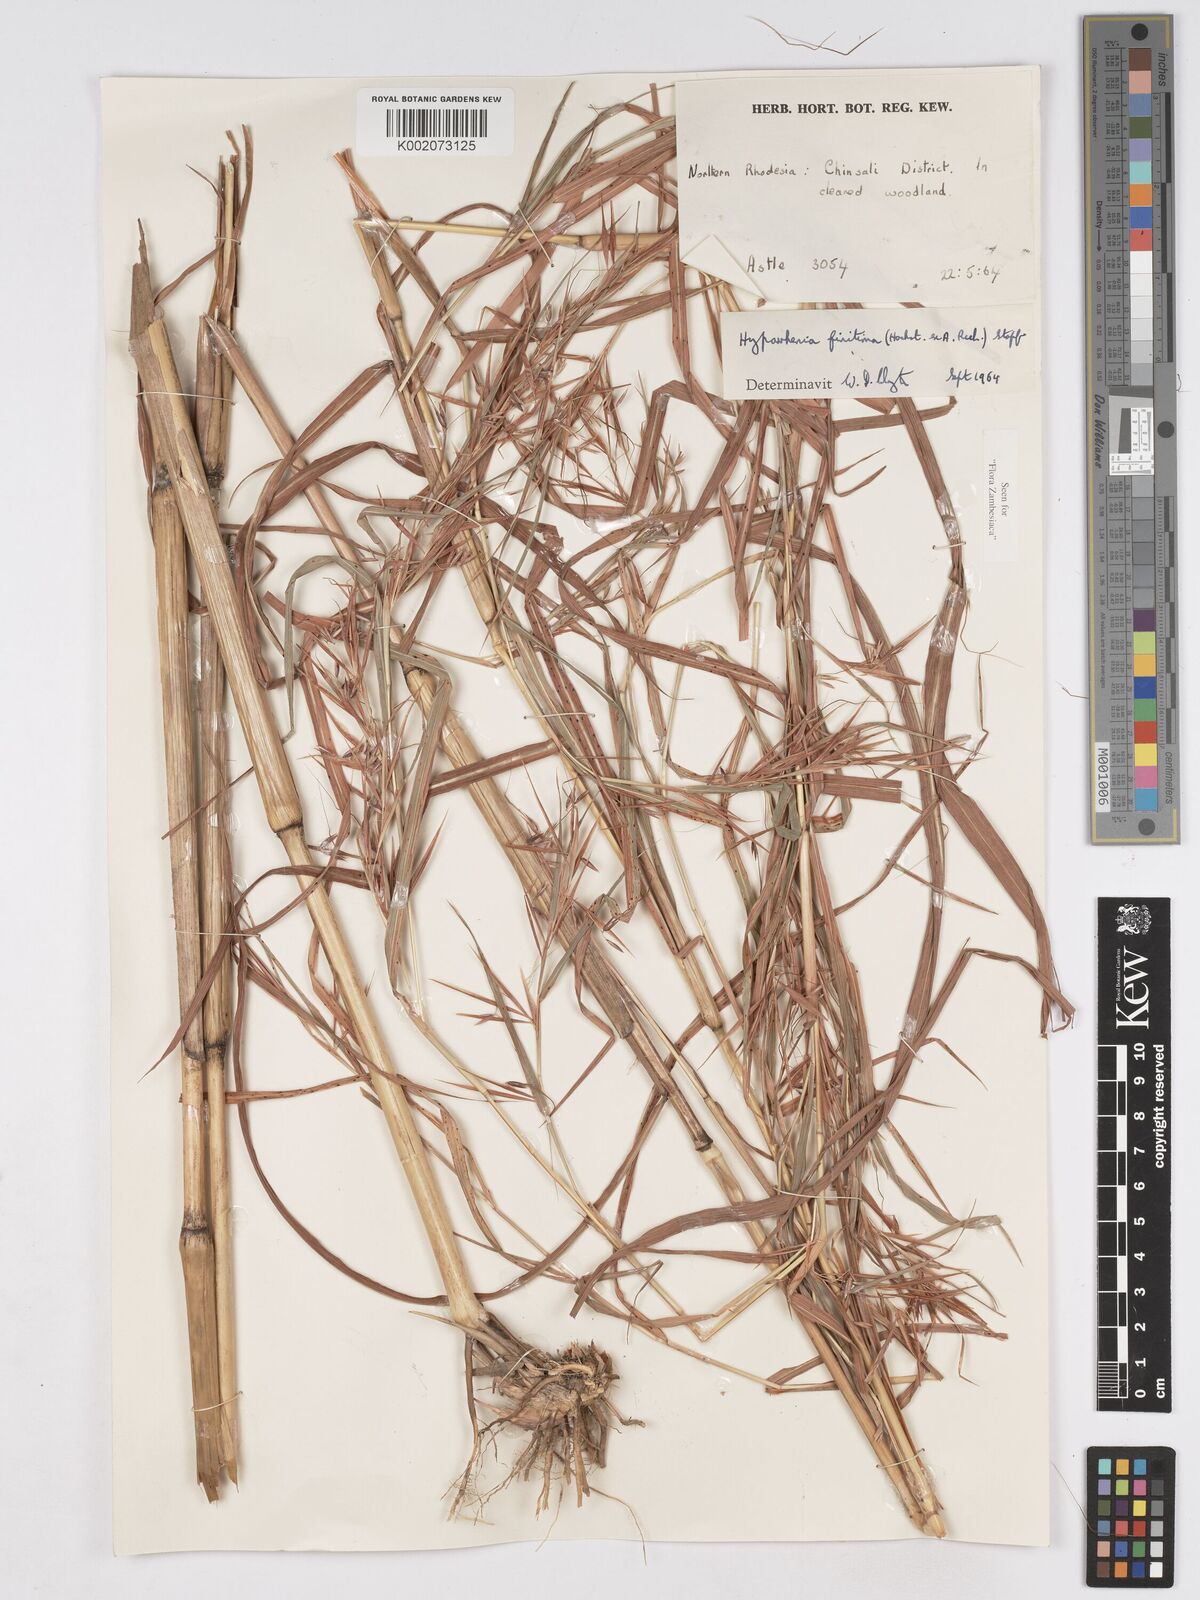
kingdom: Plantae
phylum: Tracheophyta
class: Liliopsida
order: Poales
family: Poaceae
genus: Hyparrhenia
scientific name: Hyparrhenia finitima
